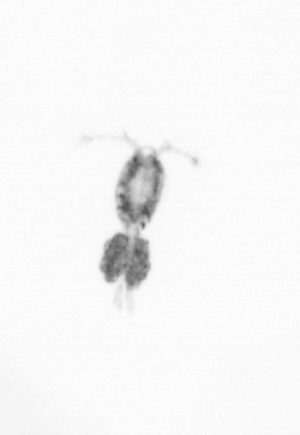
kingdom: Animalia
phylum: Arthropoda
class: Copepoda
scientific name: Copepoda
